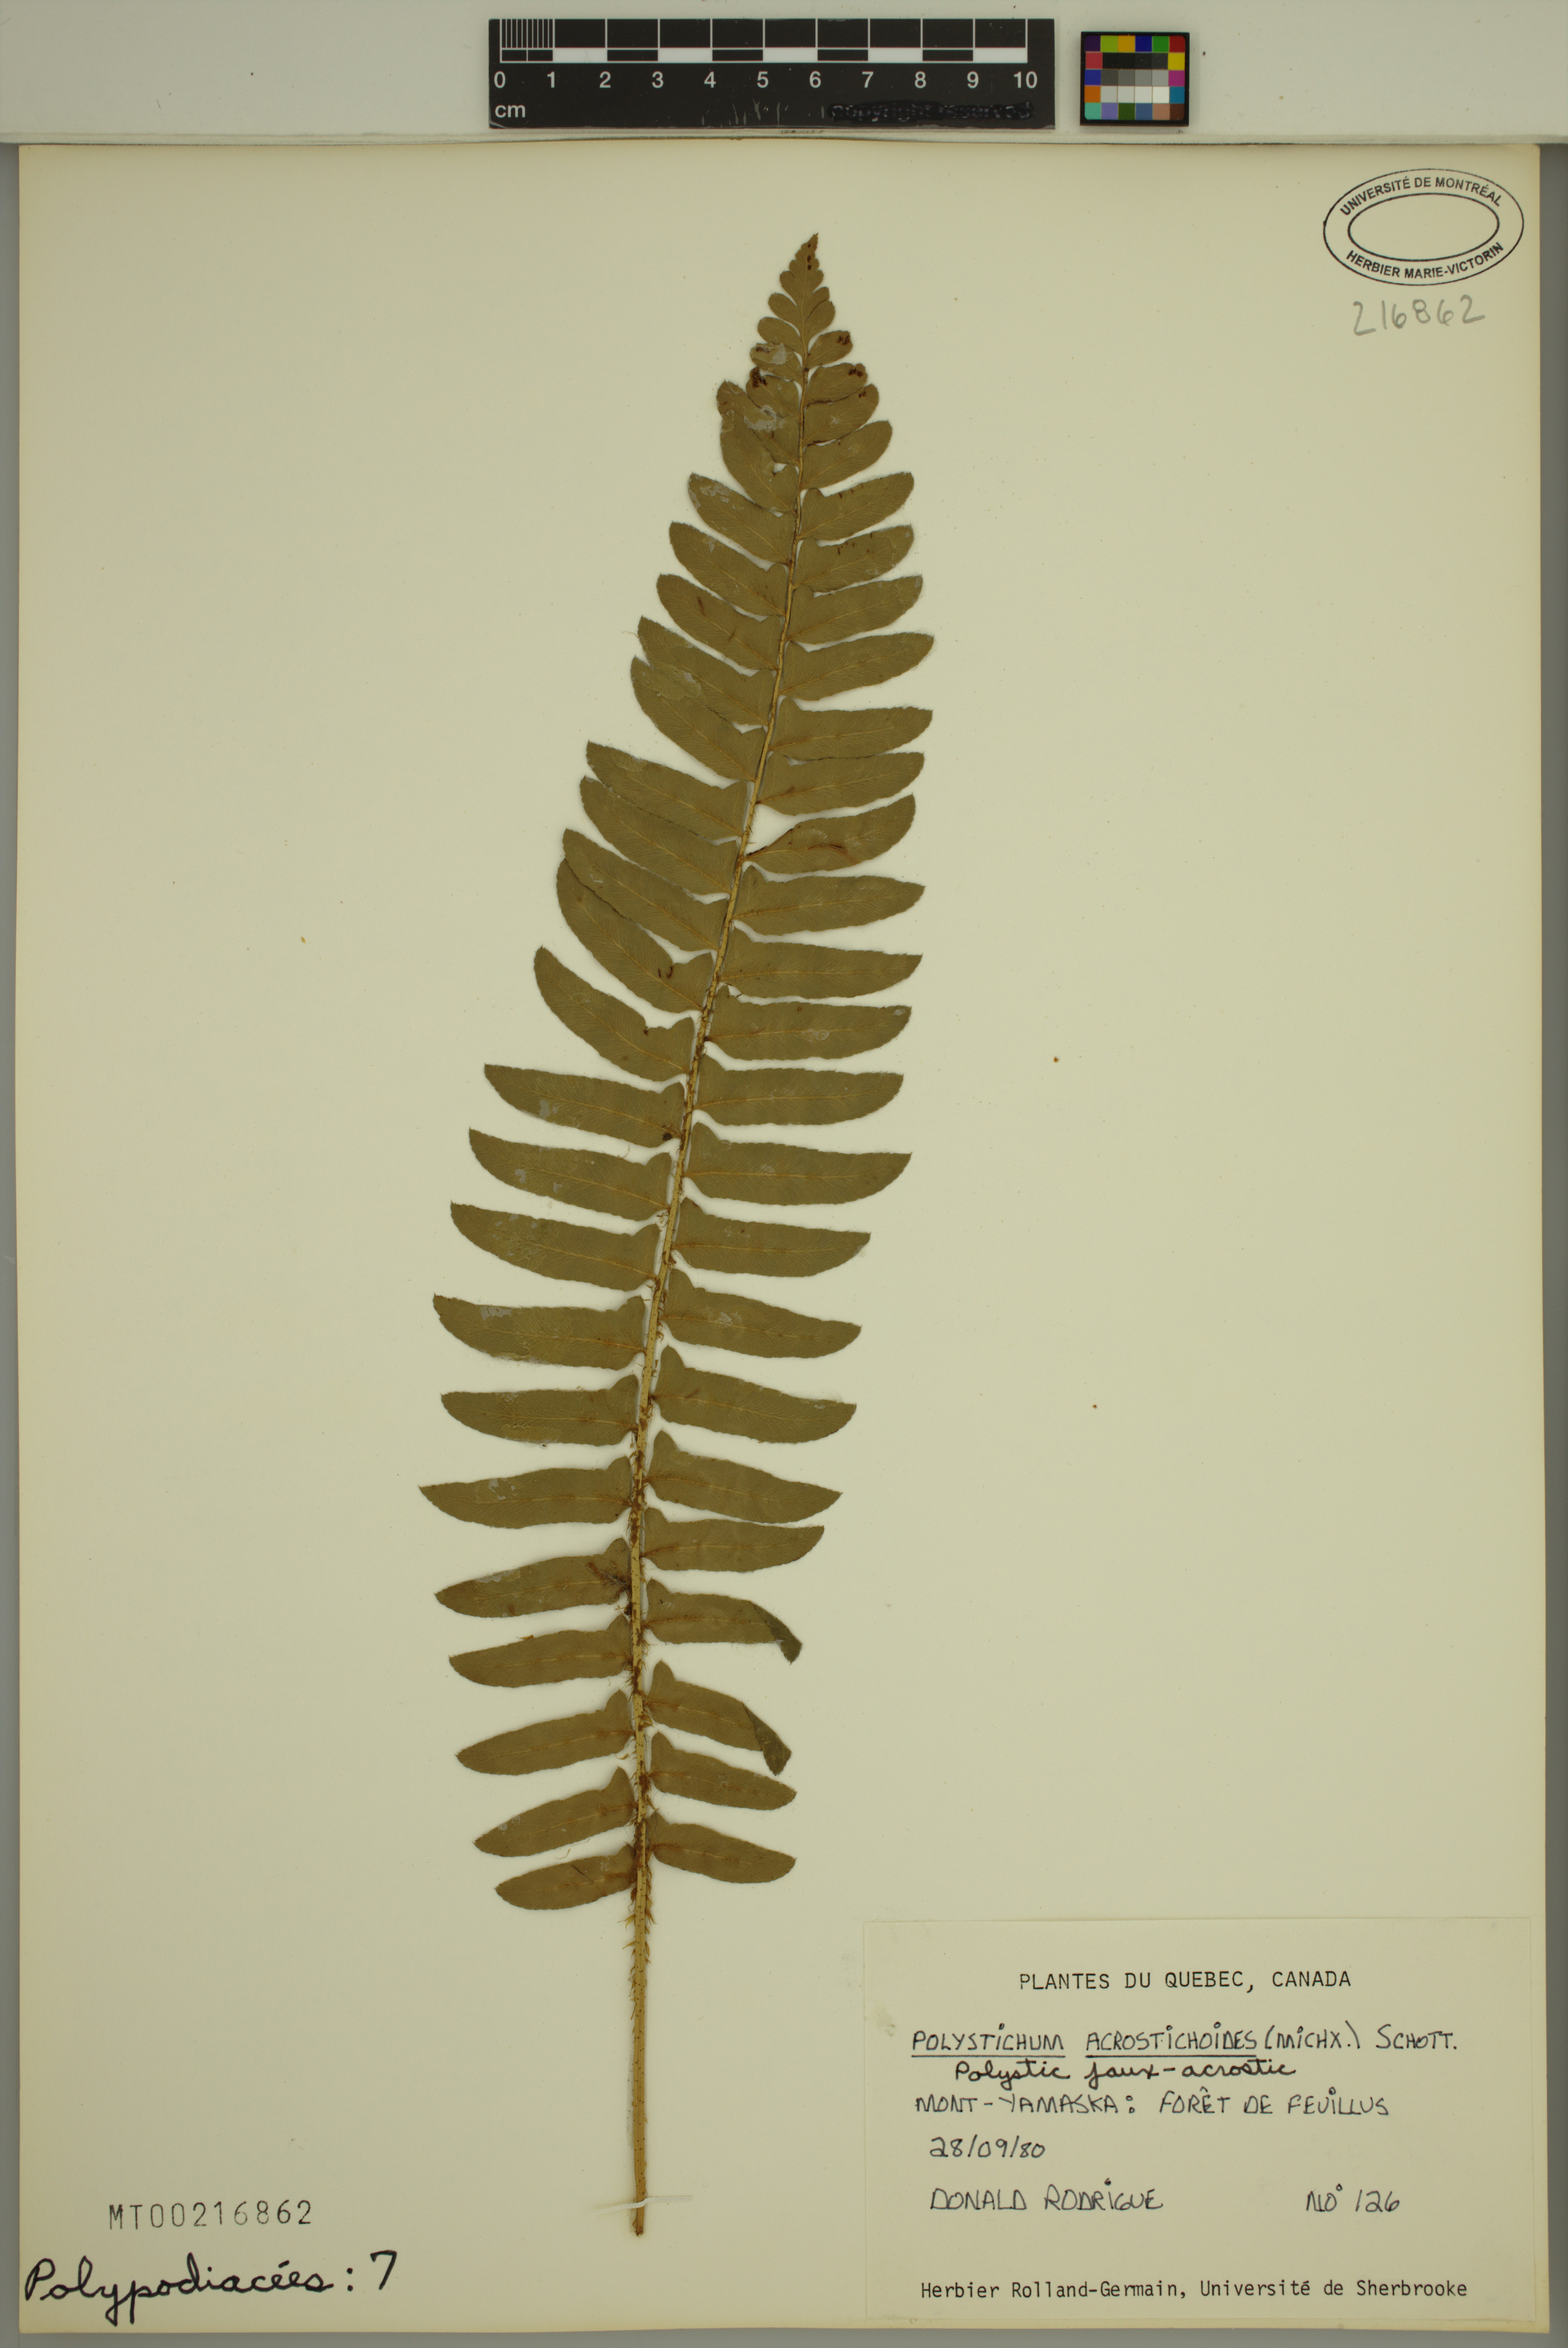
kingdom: Plantae
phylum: Tracheophyta
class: Polypodiopsida
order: Polypodiales
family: Dryopteridaceae
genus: Polystichum
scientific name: Polystichum acrostichoides
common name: Christmas fern
